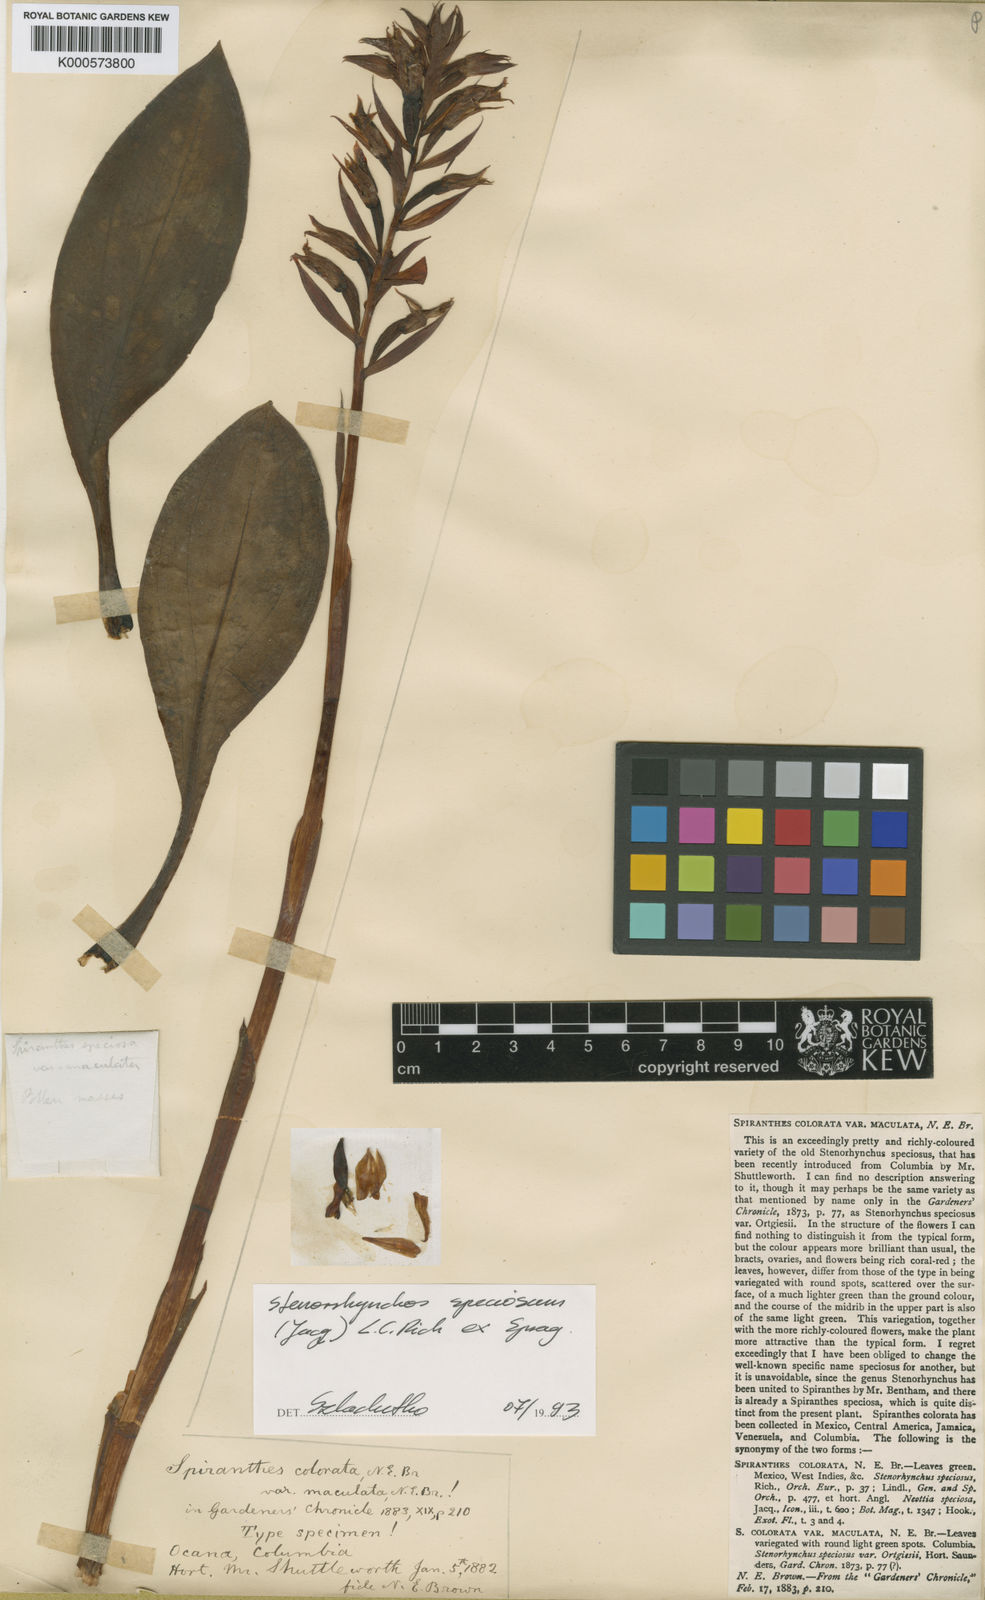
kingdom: Plantae
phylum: Tracheophyta
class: Liliopsida
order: Asparagales
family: Orchidaceae
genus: Stenorrhynchos
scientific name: Stenorrhynchos speciosum
